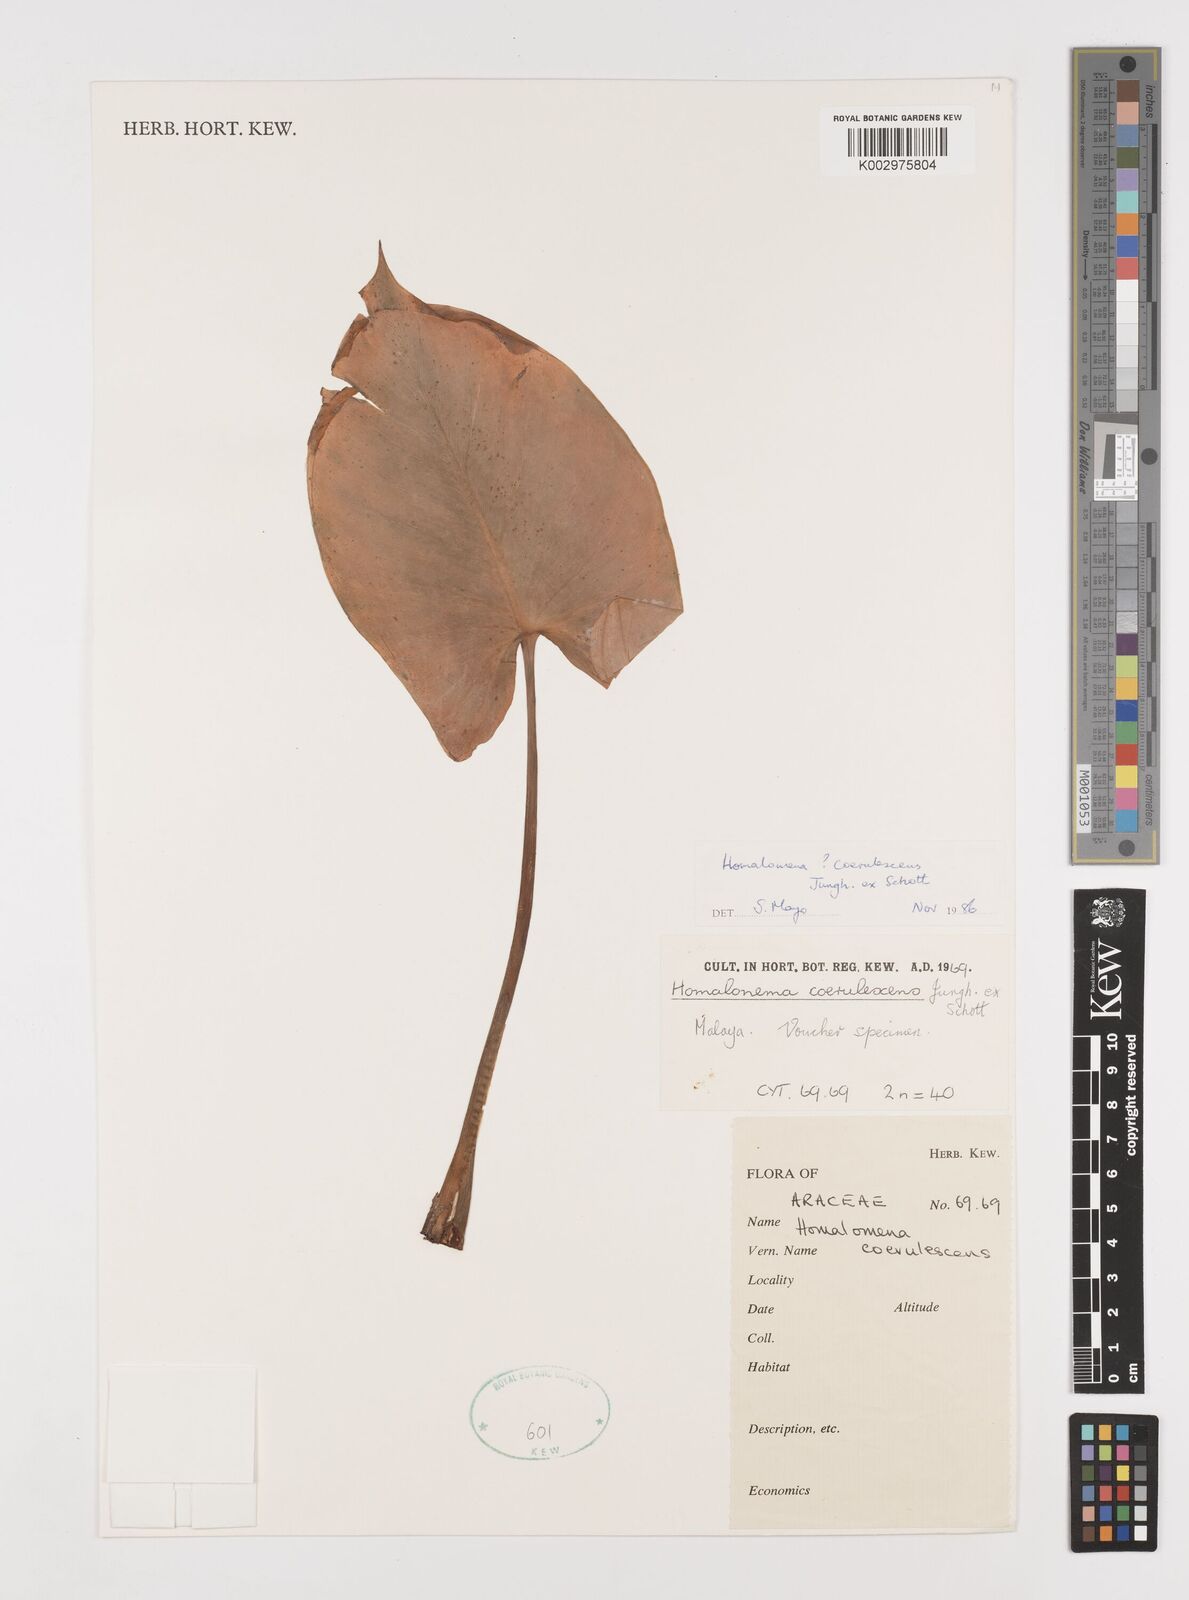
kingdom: Plantae
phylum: Tracheophyta
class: Liliopsida
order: Alismatales
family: Araceae
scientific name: Araceae
